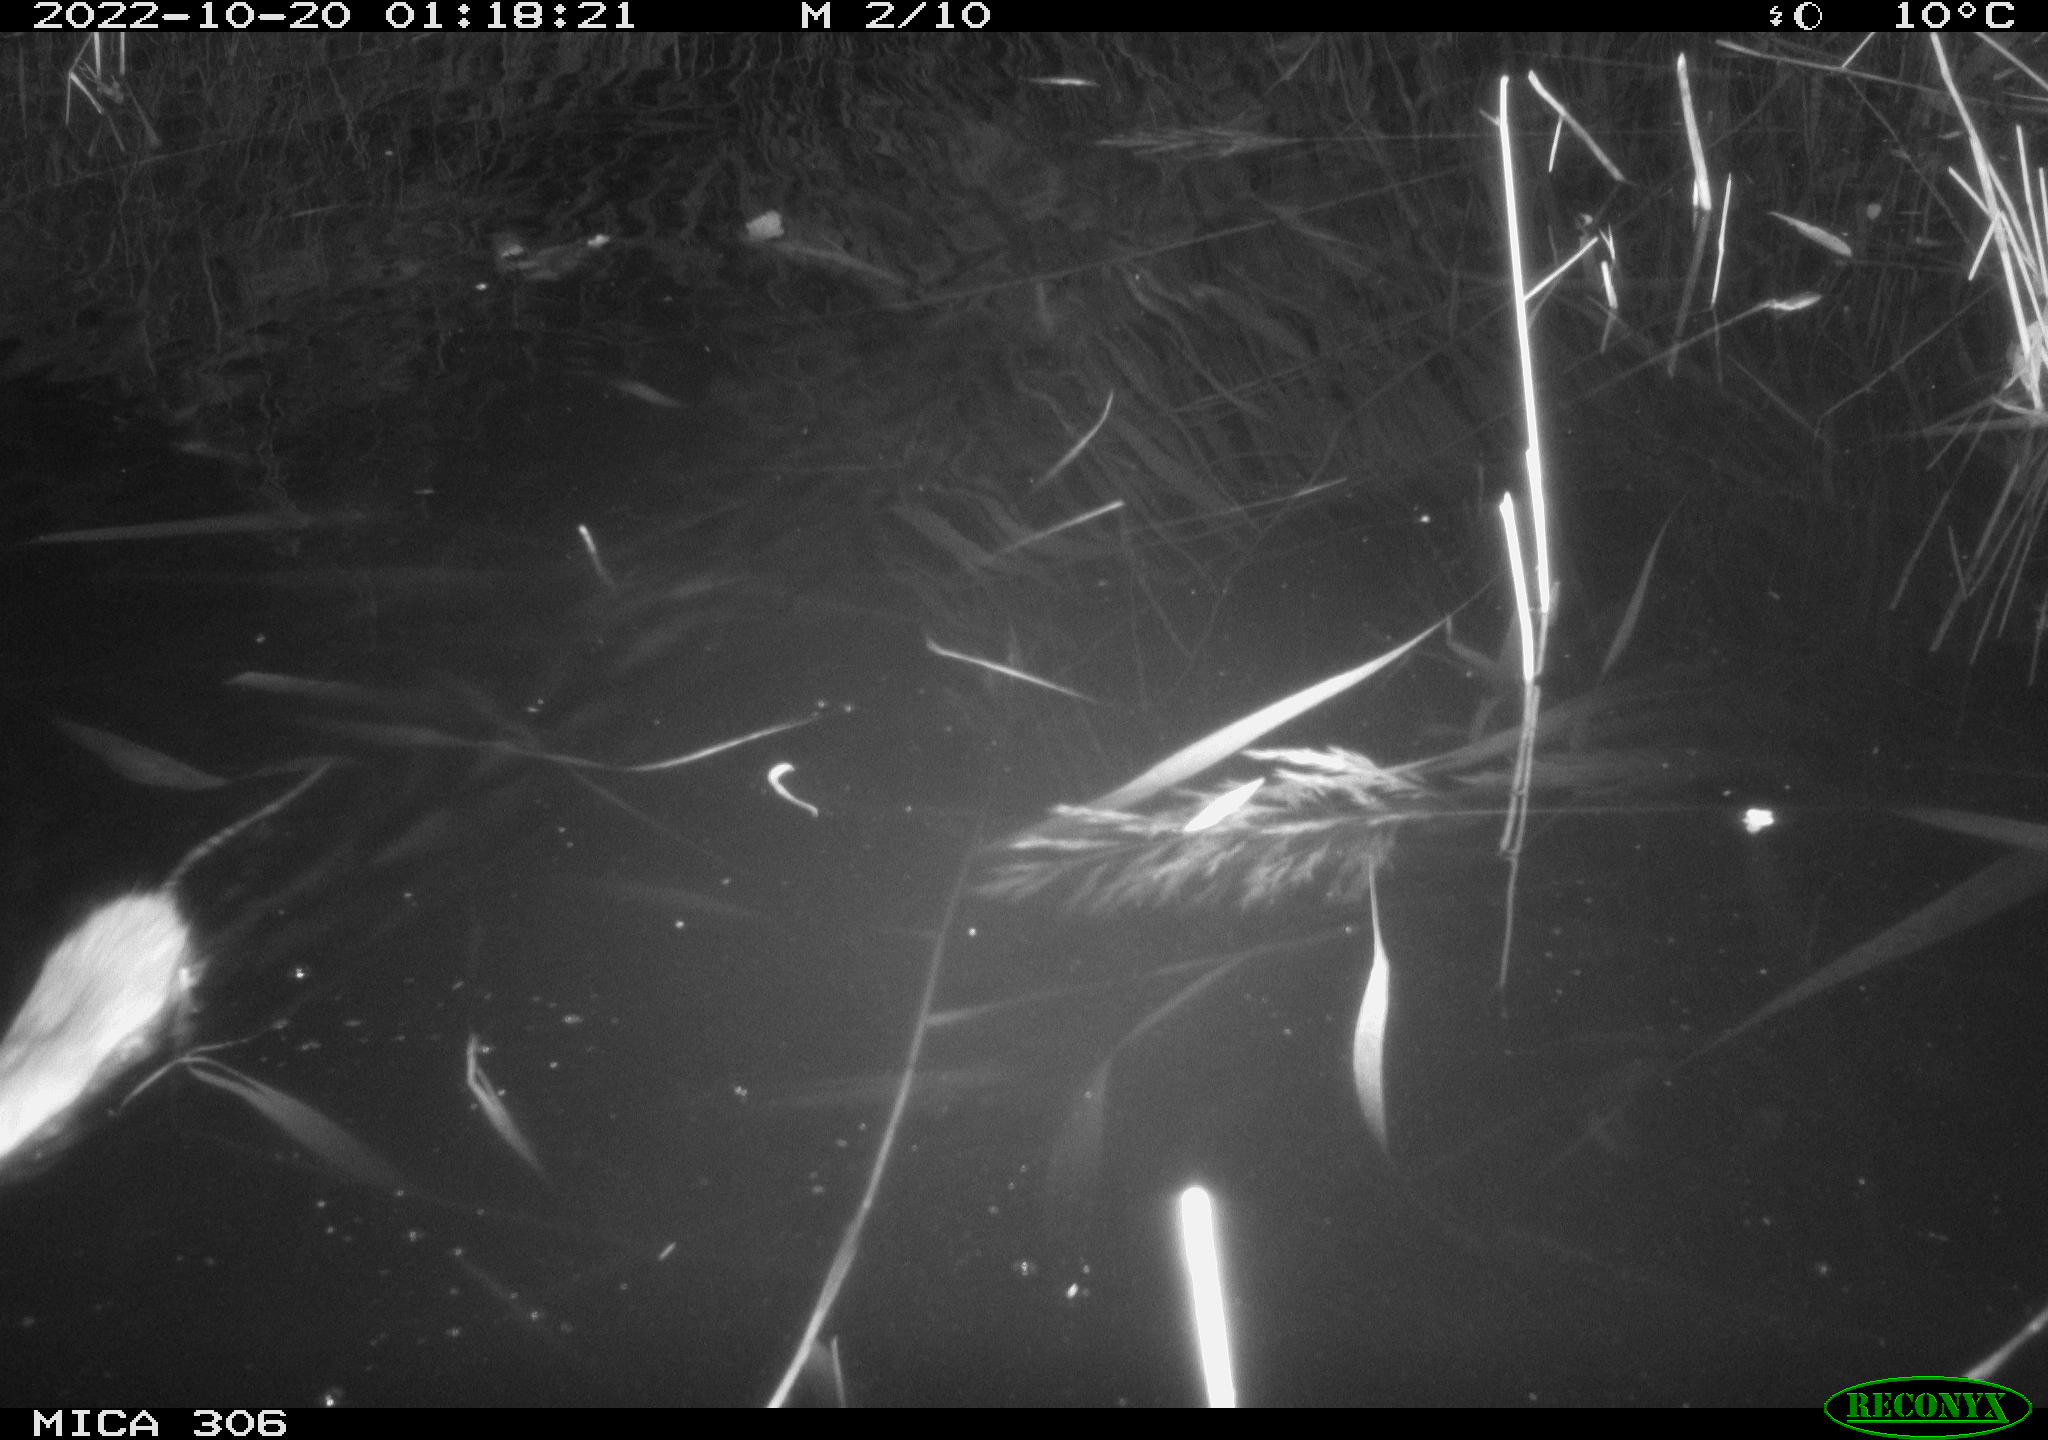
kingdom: Animalia
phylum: Chordata
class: Mammalia
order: Rodentia
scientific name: Rodentia
